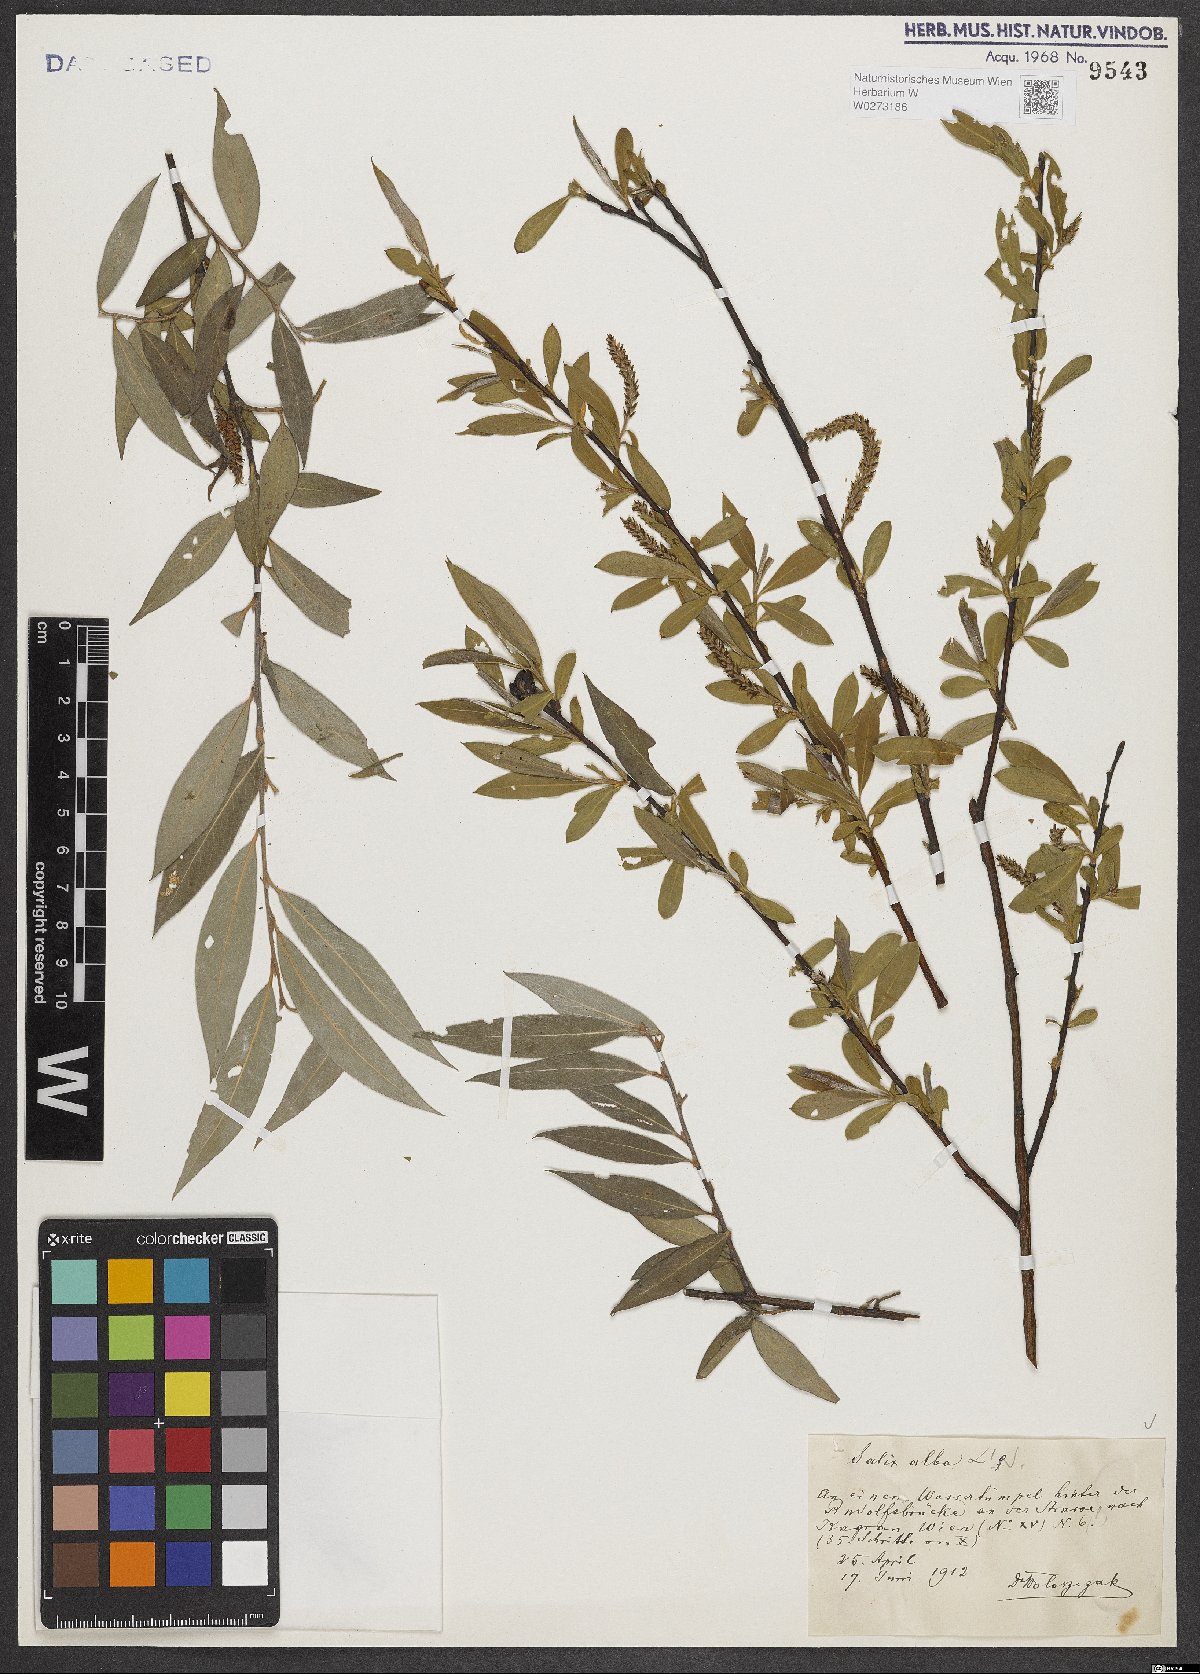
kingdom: Plantae
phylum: Tracheophyta
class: Magnoliopsida
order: Malpighiales
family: Salicaceae
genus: Salix
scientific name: Salix alba
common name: White willow
